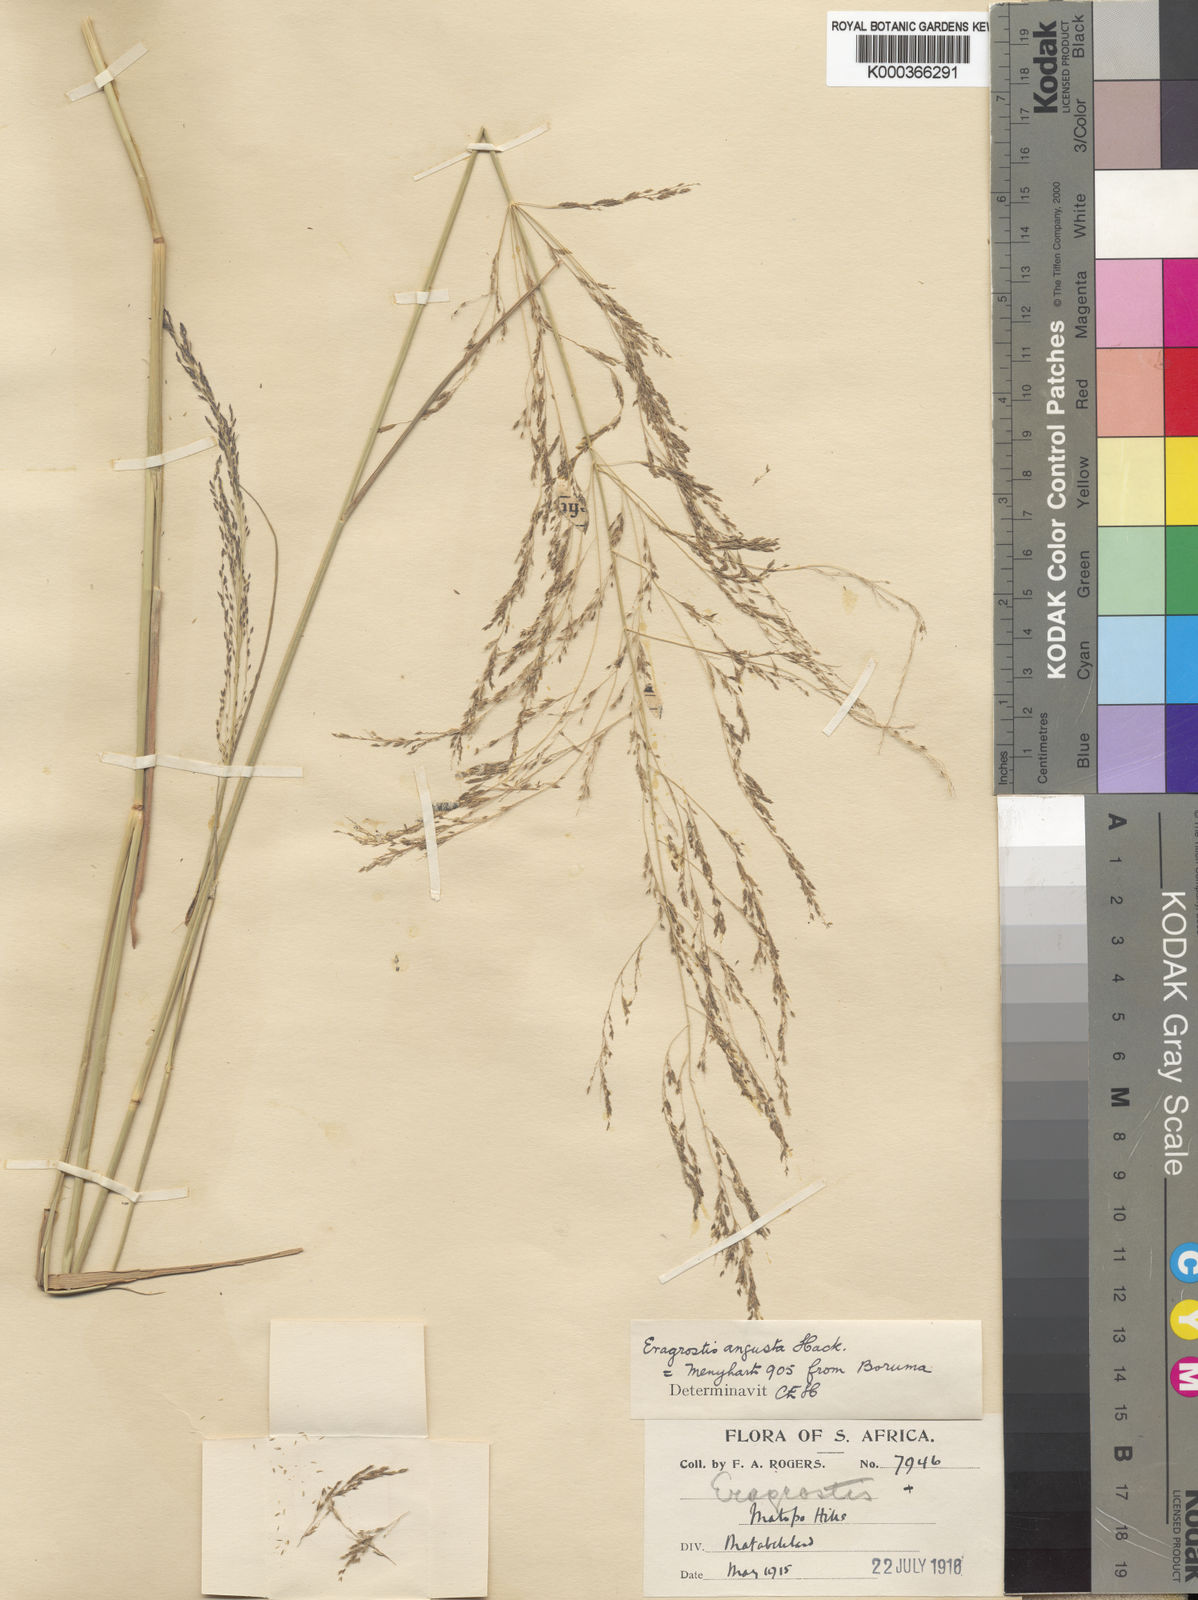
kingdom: Plantae
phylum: Tracheophyta
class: Liliopsida
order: Poales
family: Poaceae
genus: Eragrostis
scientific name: Eragrostis rotifer
